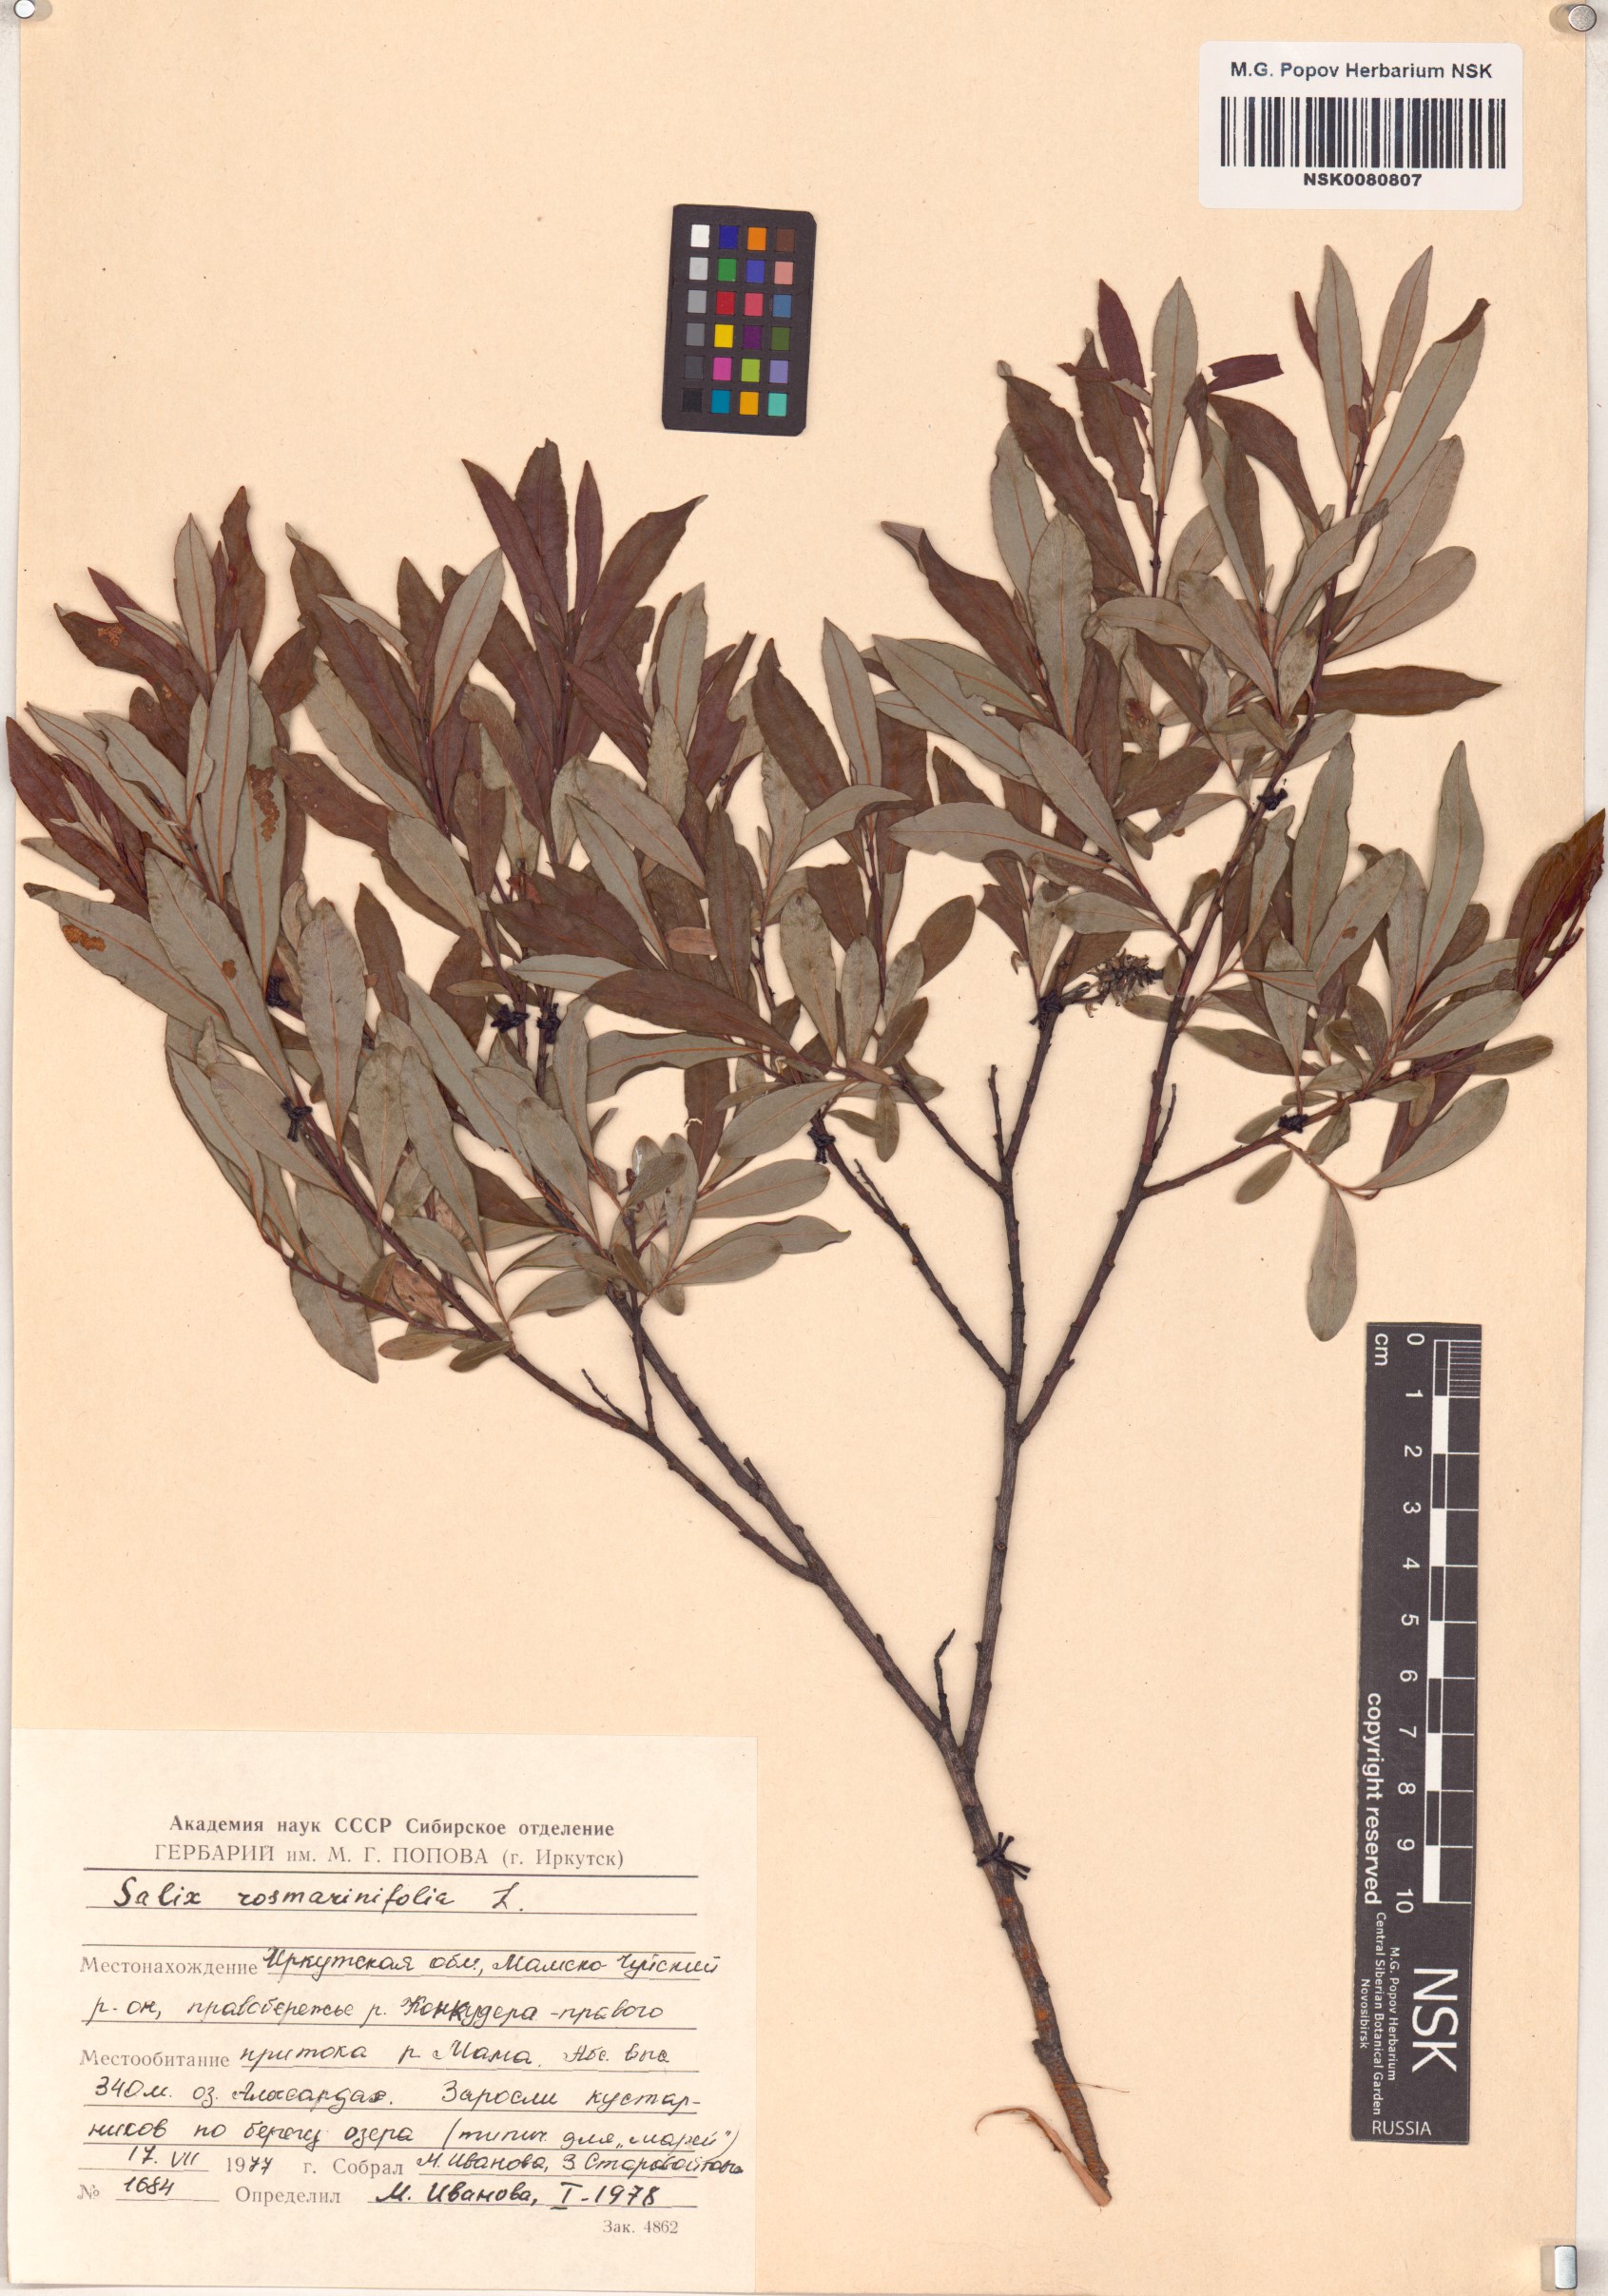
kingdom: Plantae
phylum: Tracheophyta
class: Magnoliopsida
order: Malpighiales
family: Salicaceae
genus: Salix
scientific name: Salix rosmarinifolia
